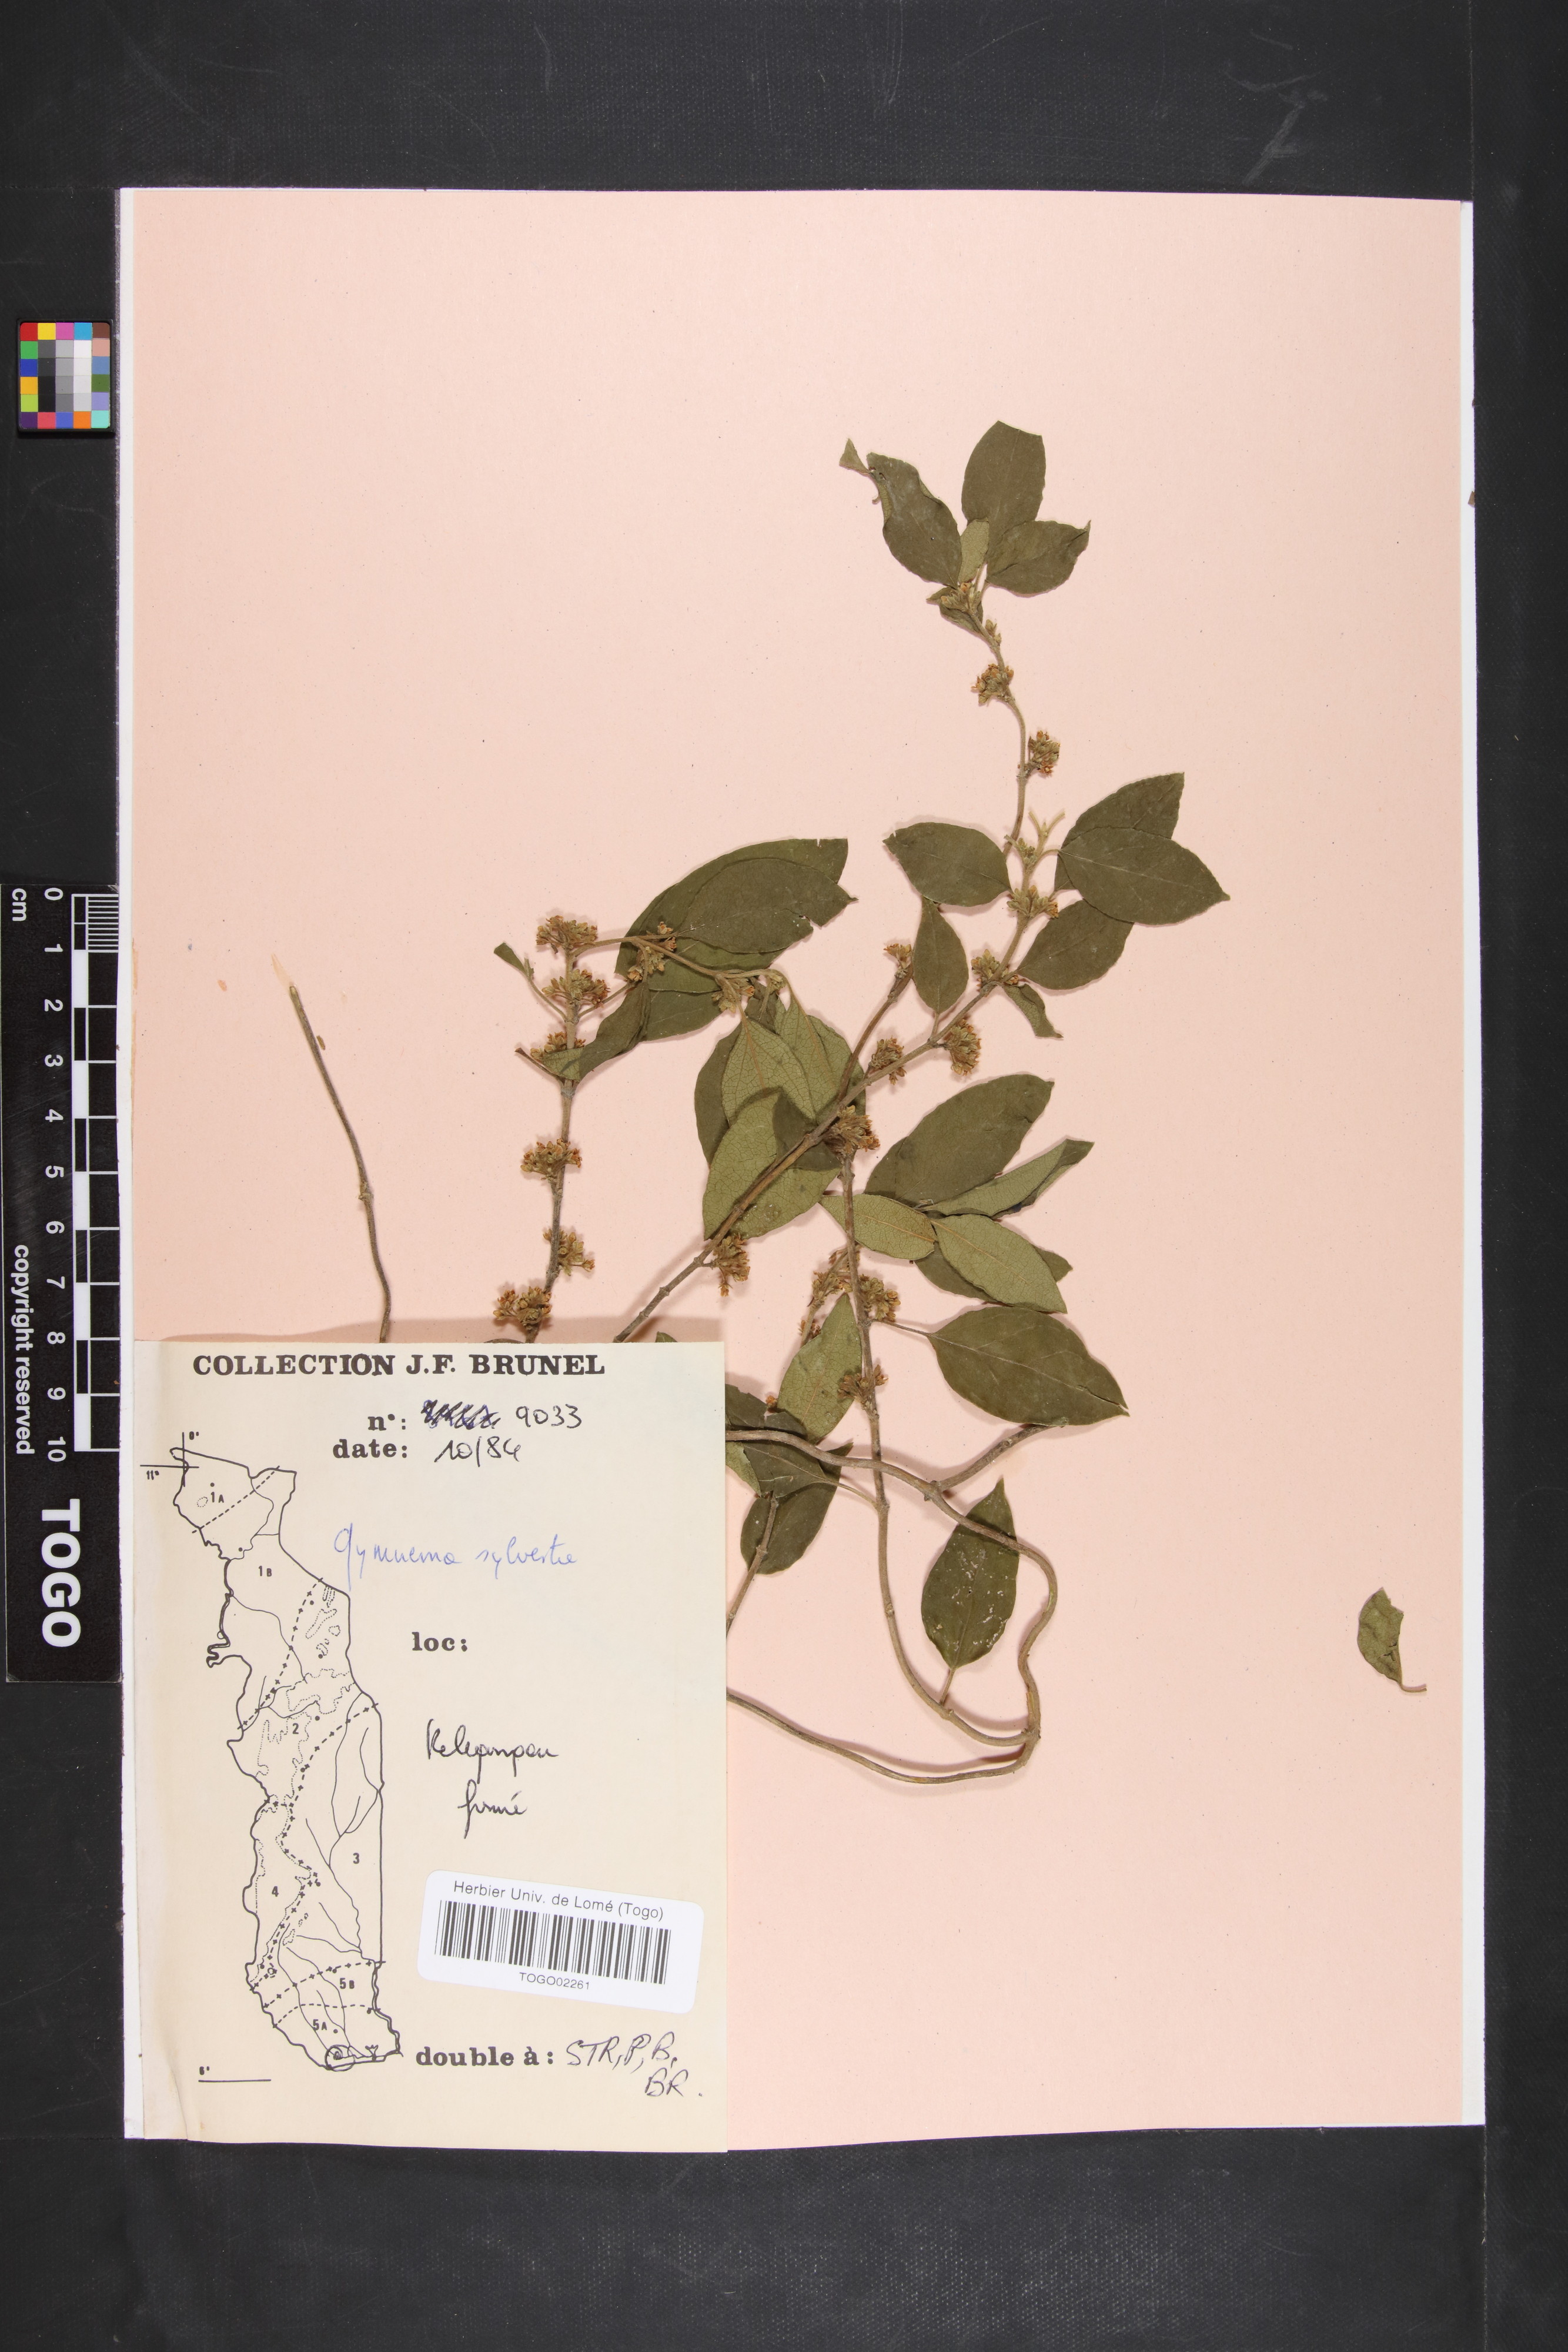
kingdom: Plantae
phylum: Tracheophyta
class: Magnoliopsida
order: Gentianales
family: Apocynaceae
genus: Gymnema
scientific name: Gymnema sylvestre
